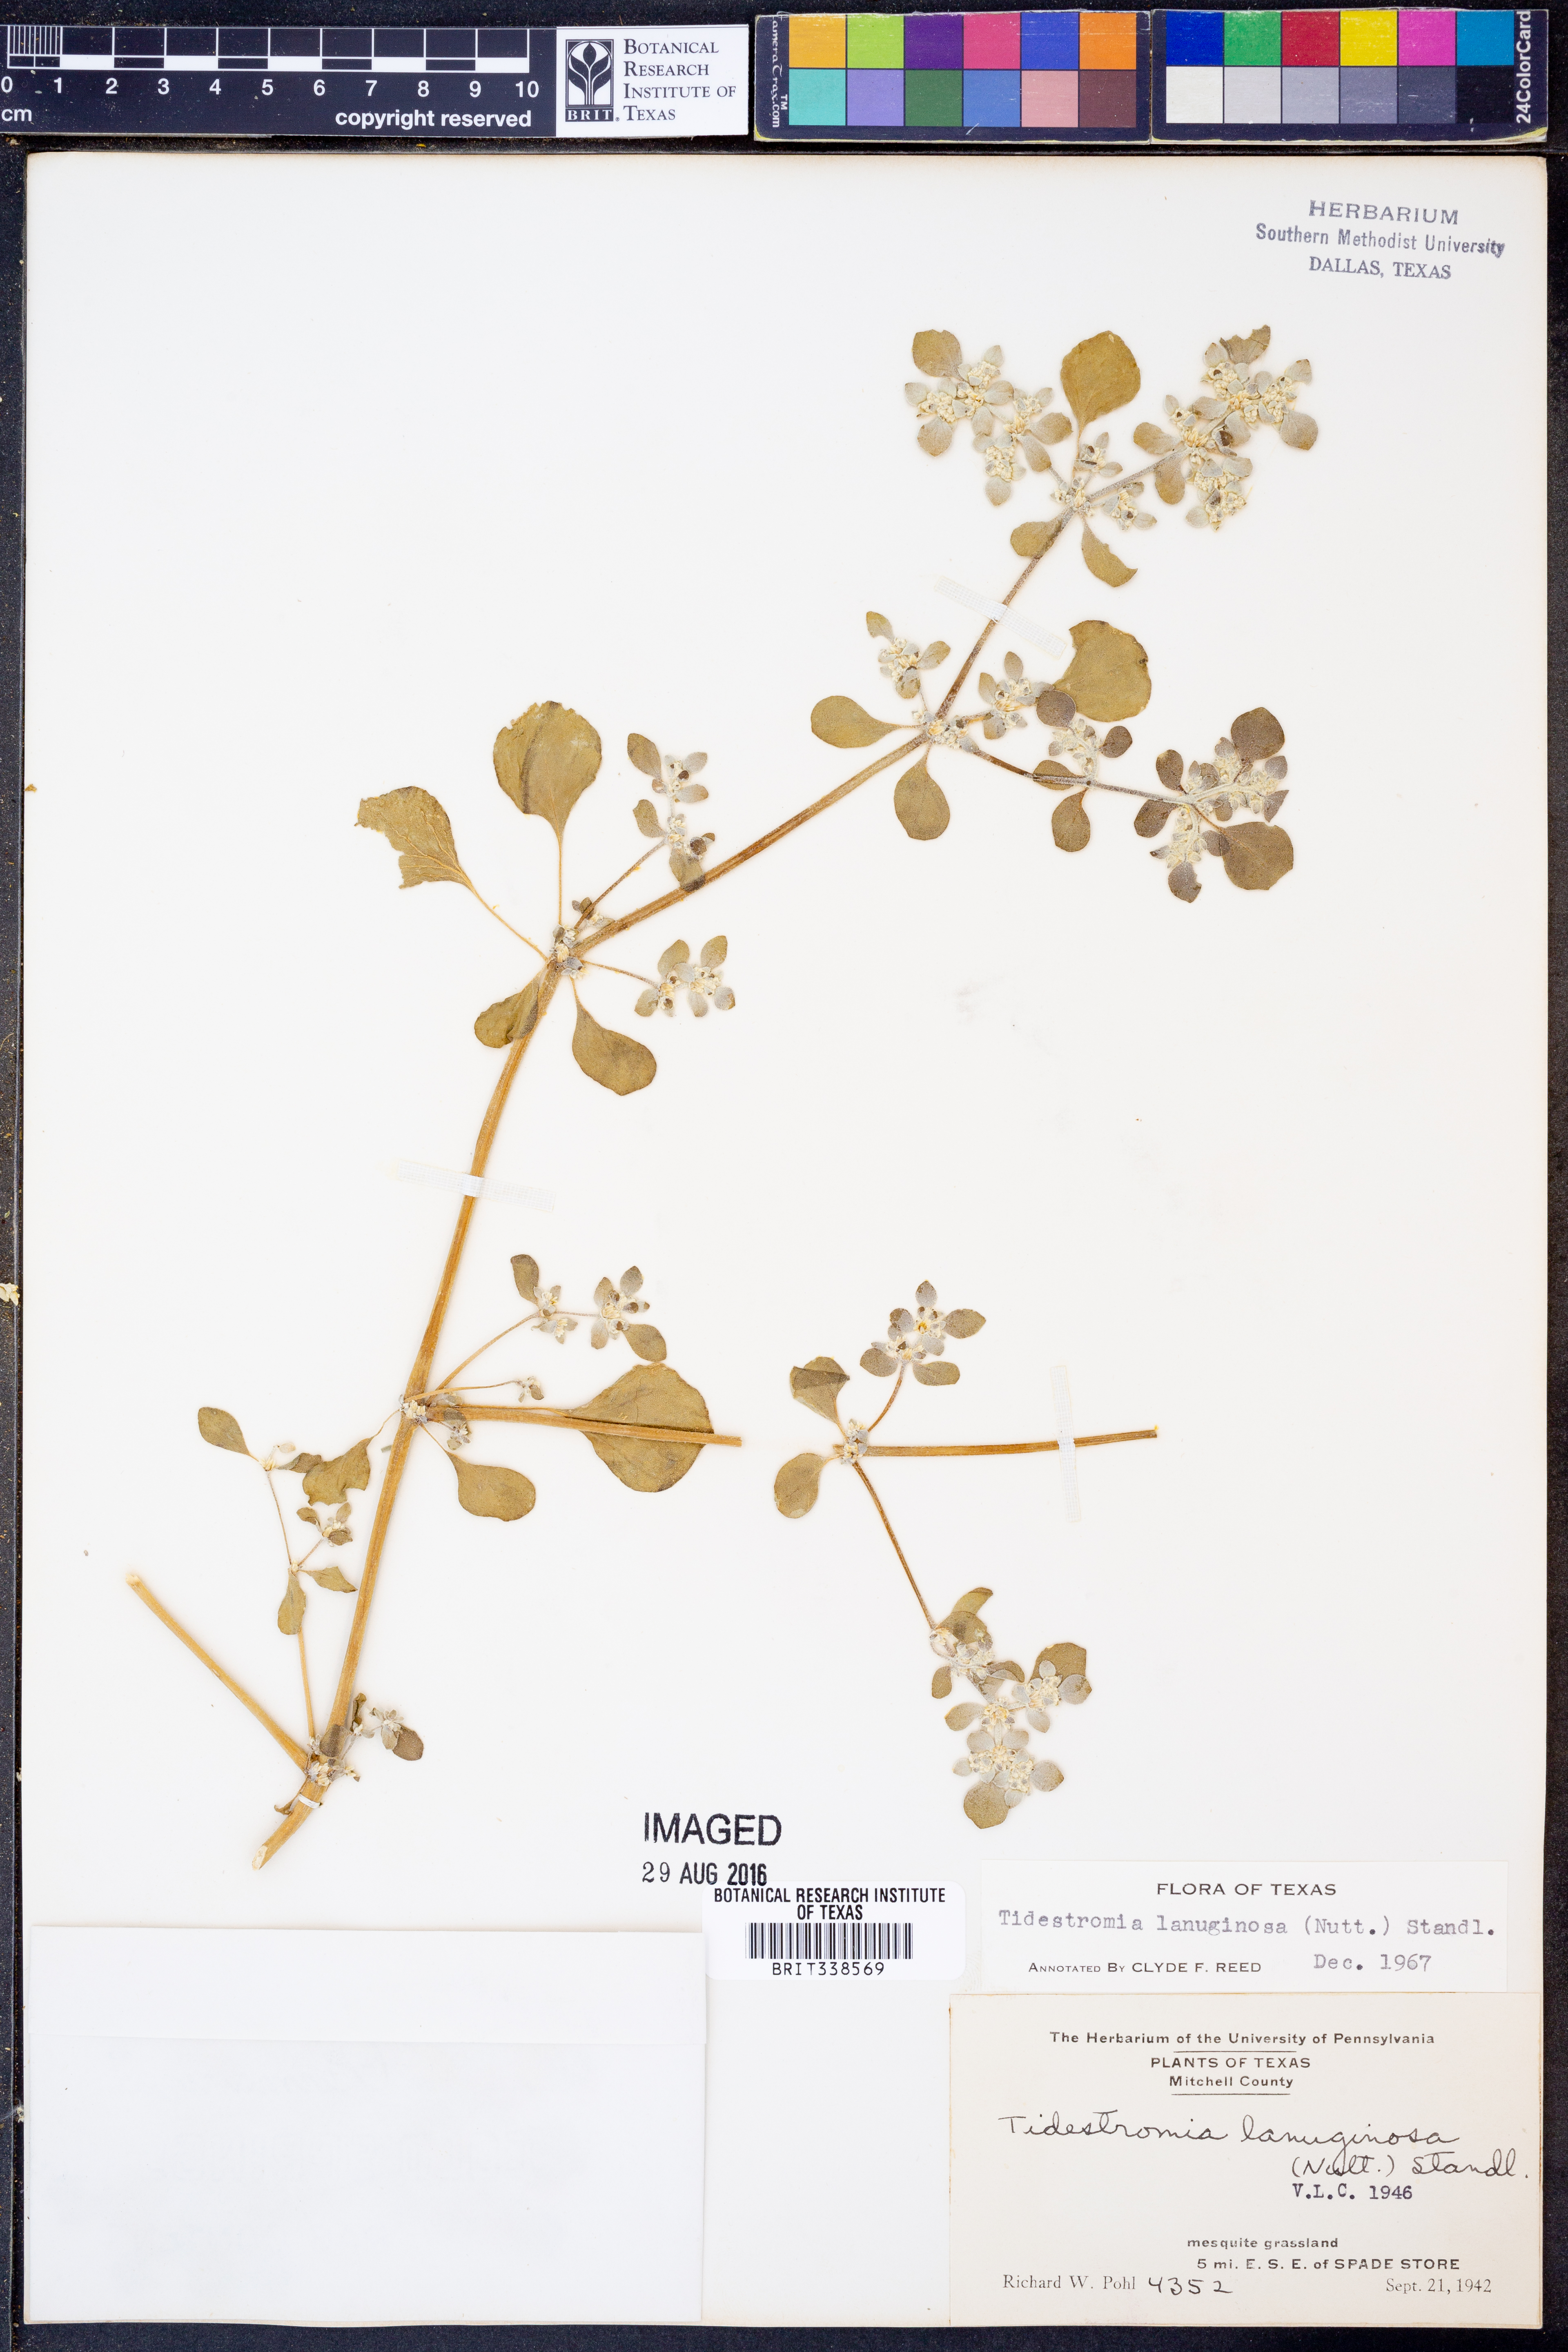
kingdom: Plantae
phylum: Tracheophyta
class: Magnoliopsida
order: Caryophyllales
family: Amaranthaceae
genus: Tidestromia
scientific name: Tidestromia lanuginosa
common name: Woolly tidestromia
